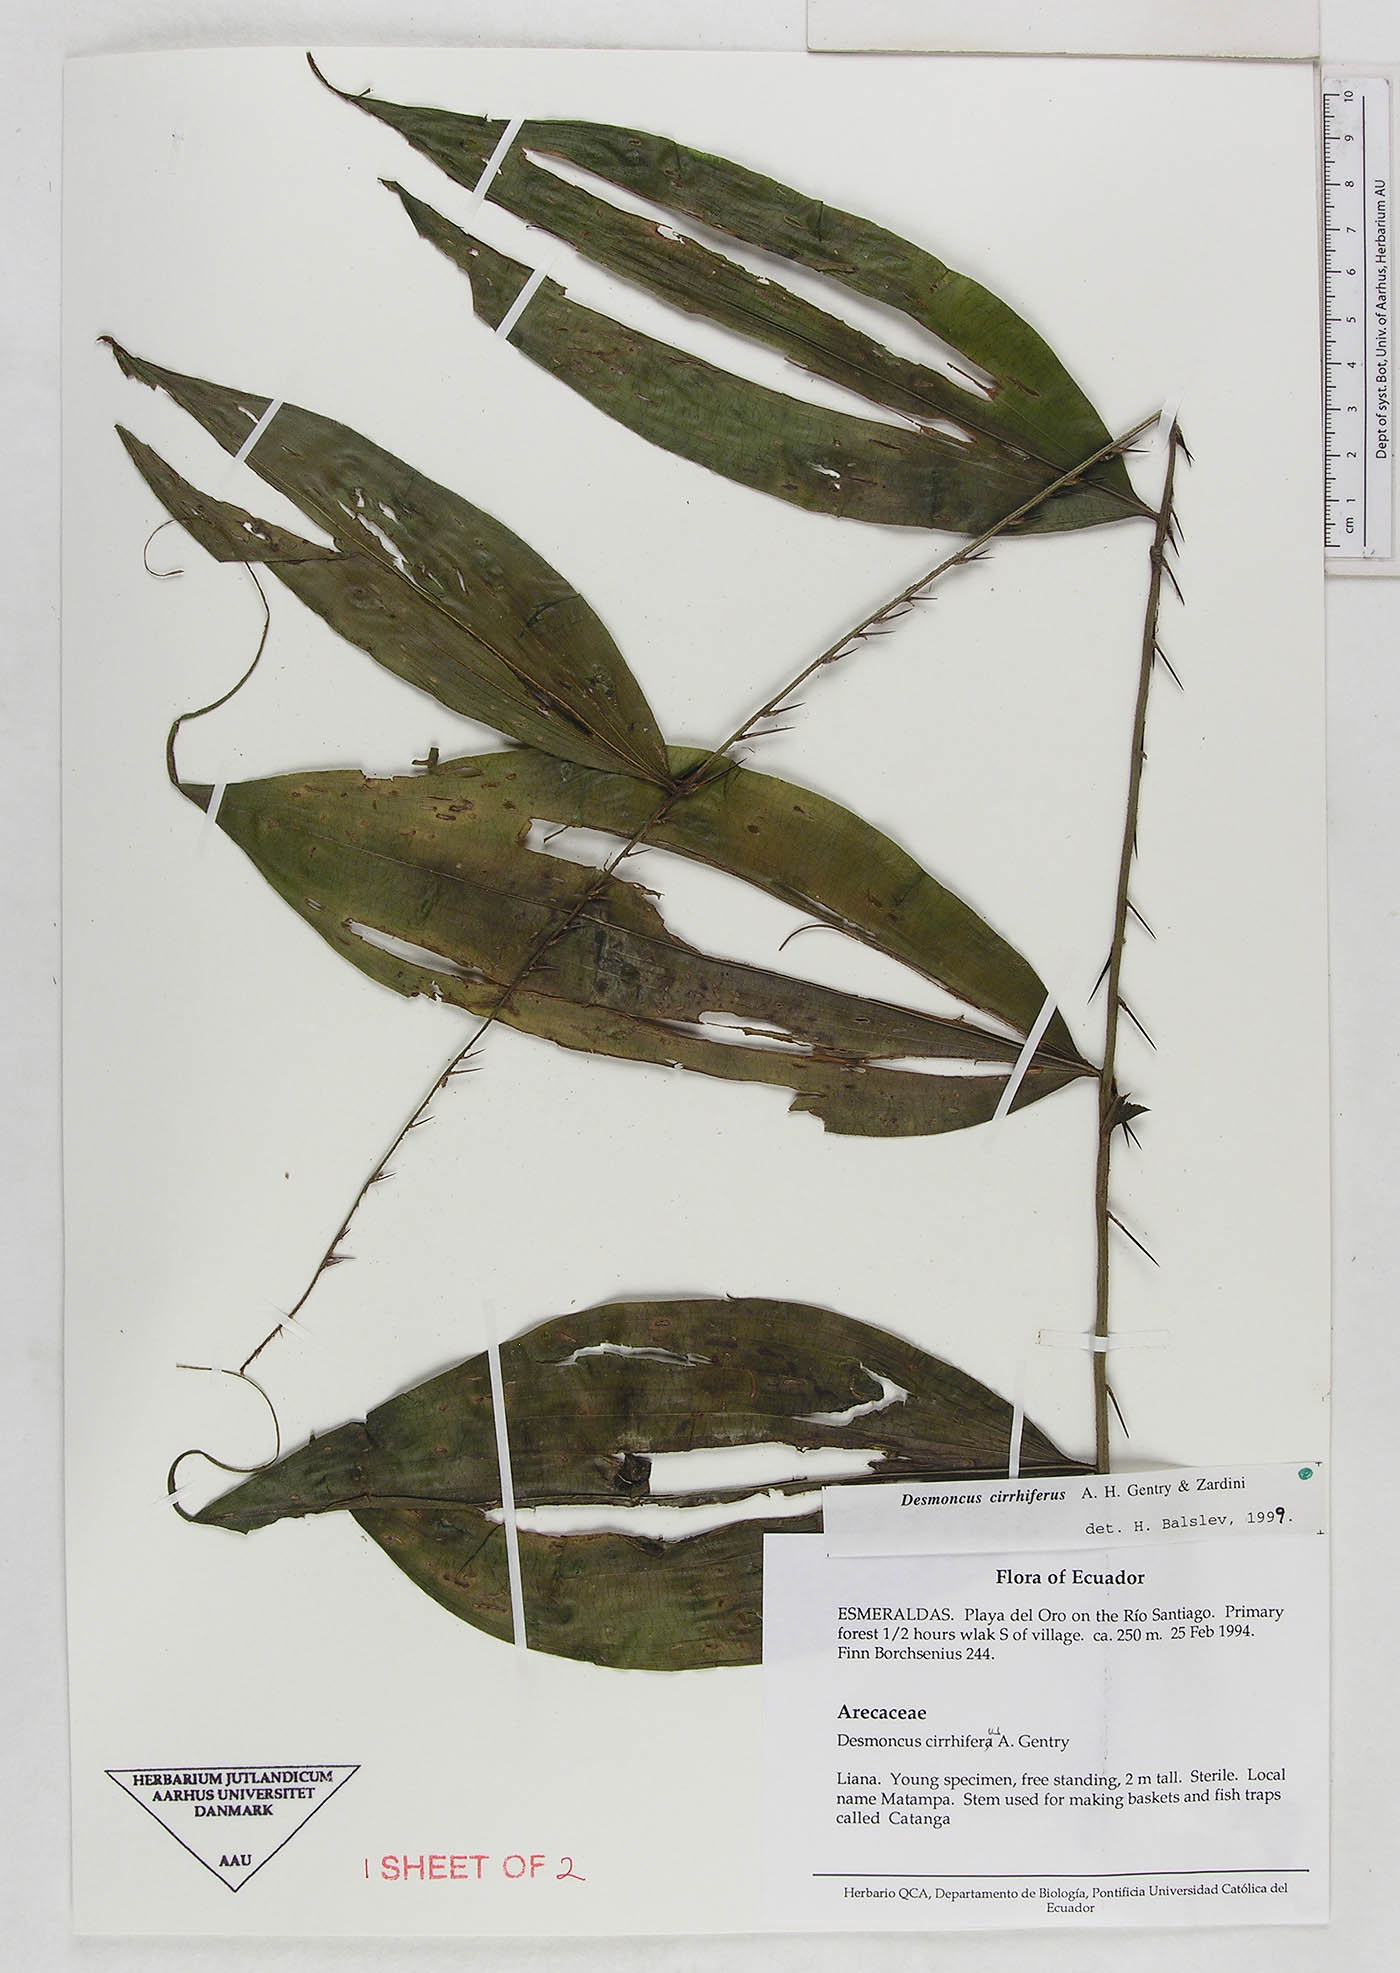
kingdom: Plantae
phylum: Tracheophyta
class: Liliopsida
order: Arecales
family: Arecaceae
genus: Desmoncus
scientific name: Desmoncus cirrhiferus
